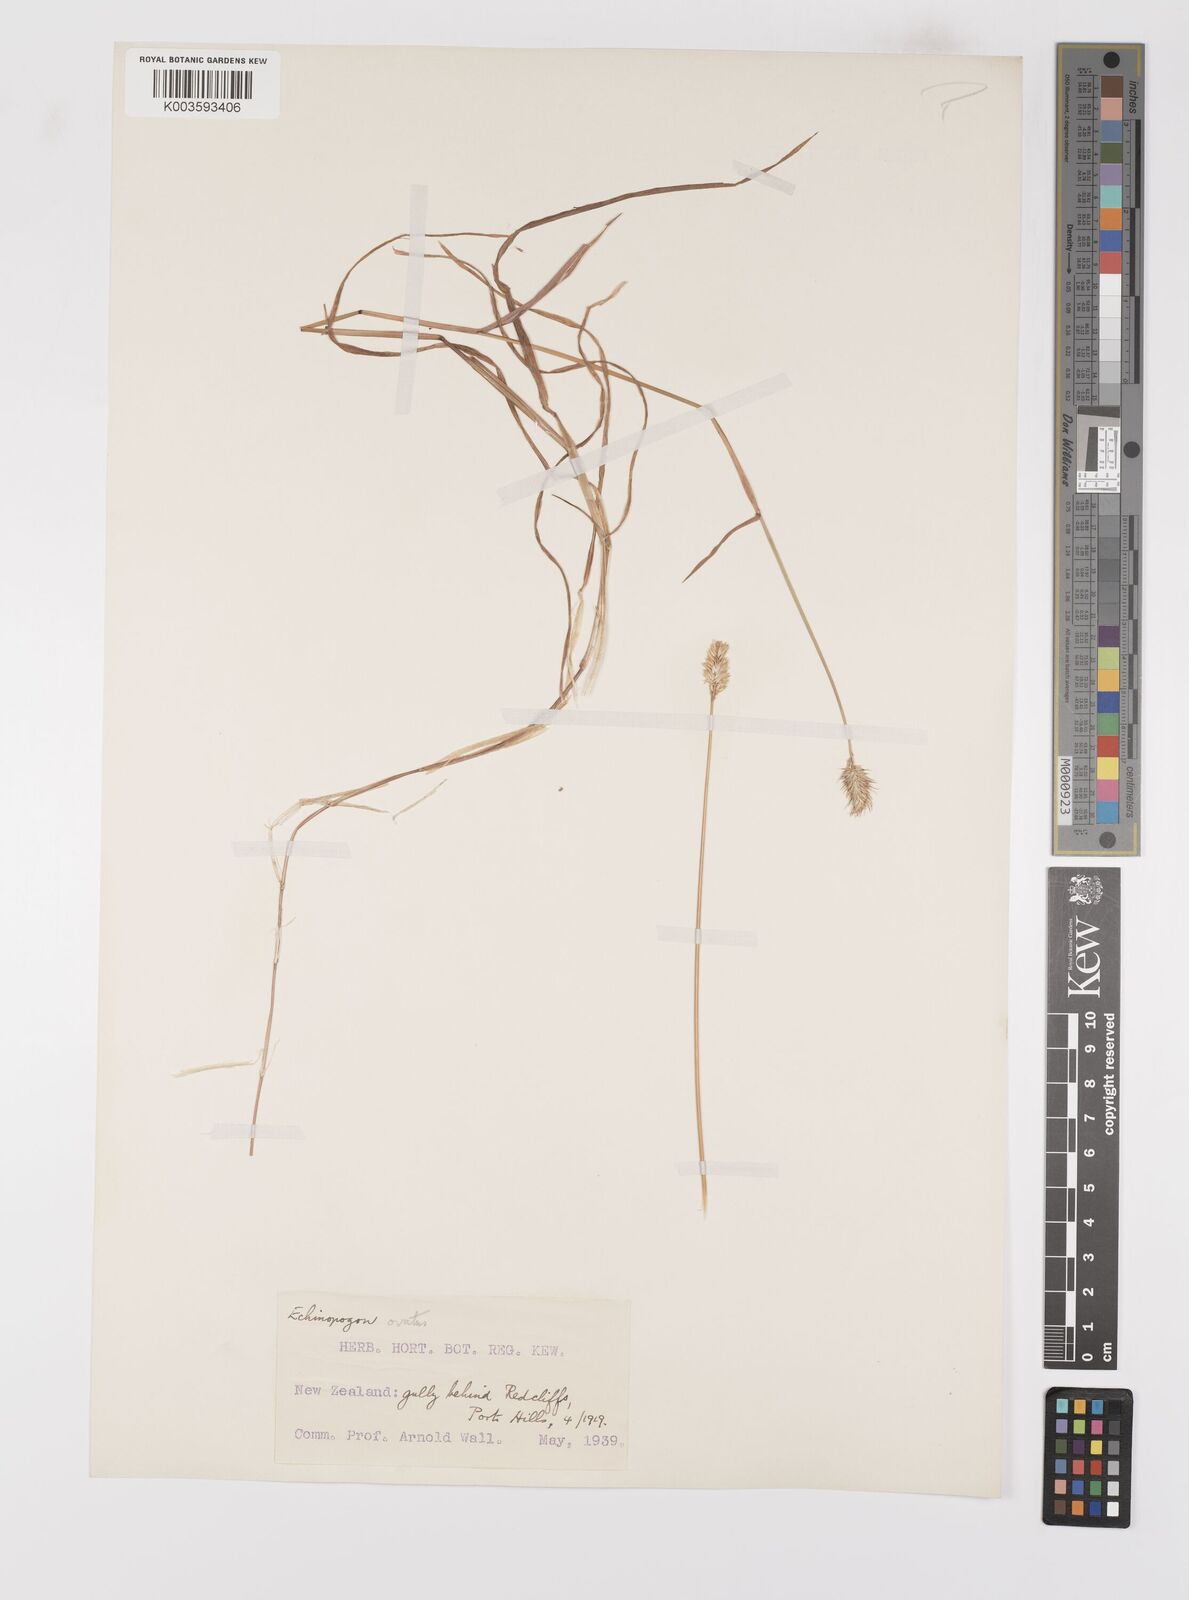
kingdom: Plantae
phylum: Tracheophyta
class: Liliopsida
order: Poales
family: Poaceae
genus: Echinopogon
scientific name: Echinopogon ovatus
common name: Hedgehog-grass
